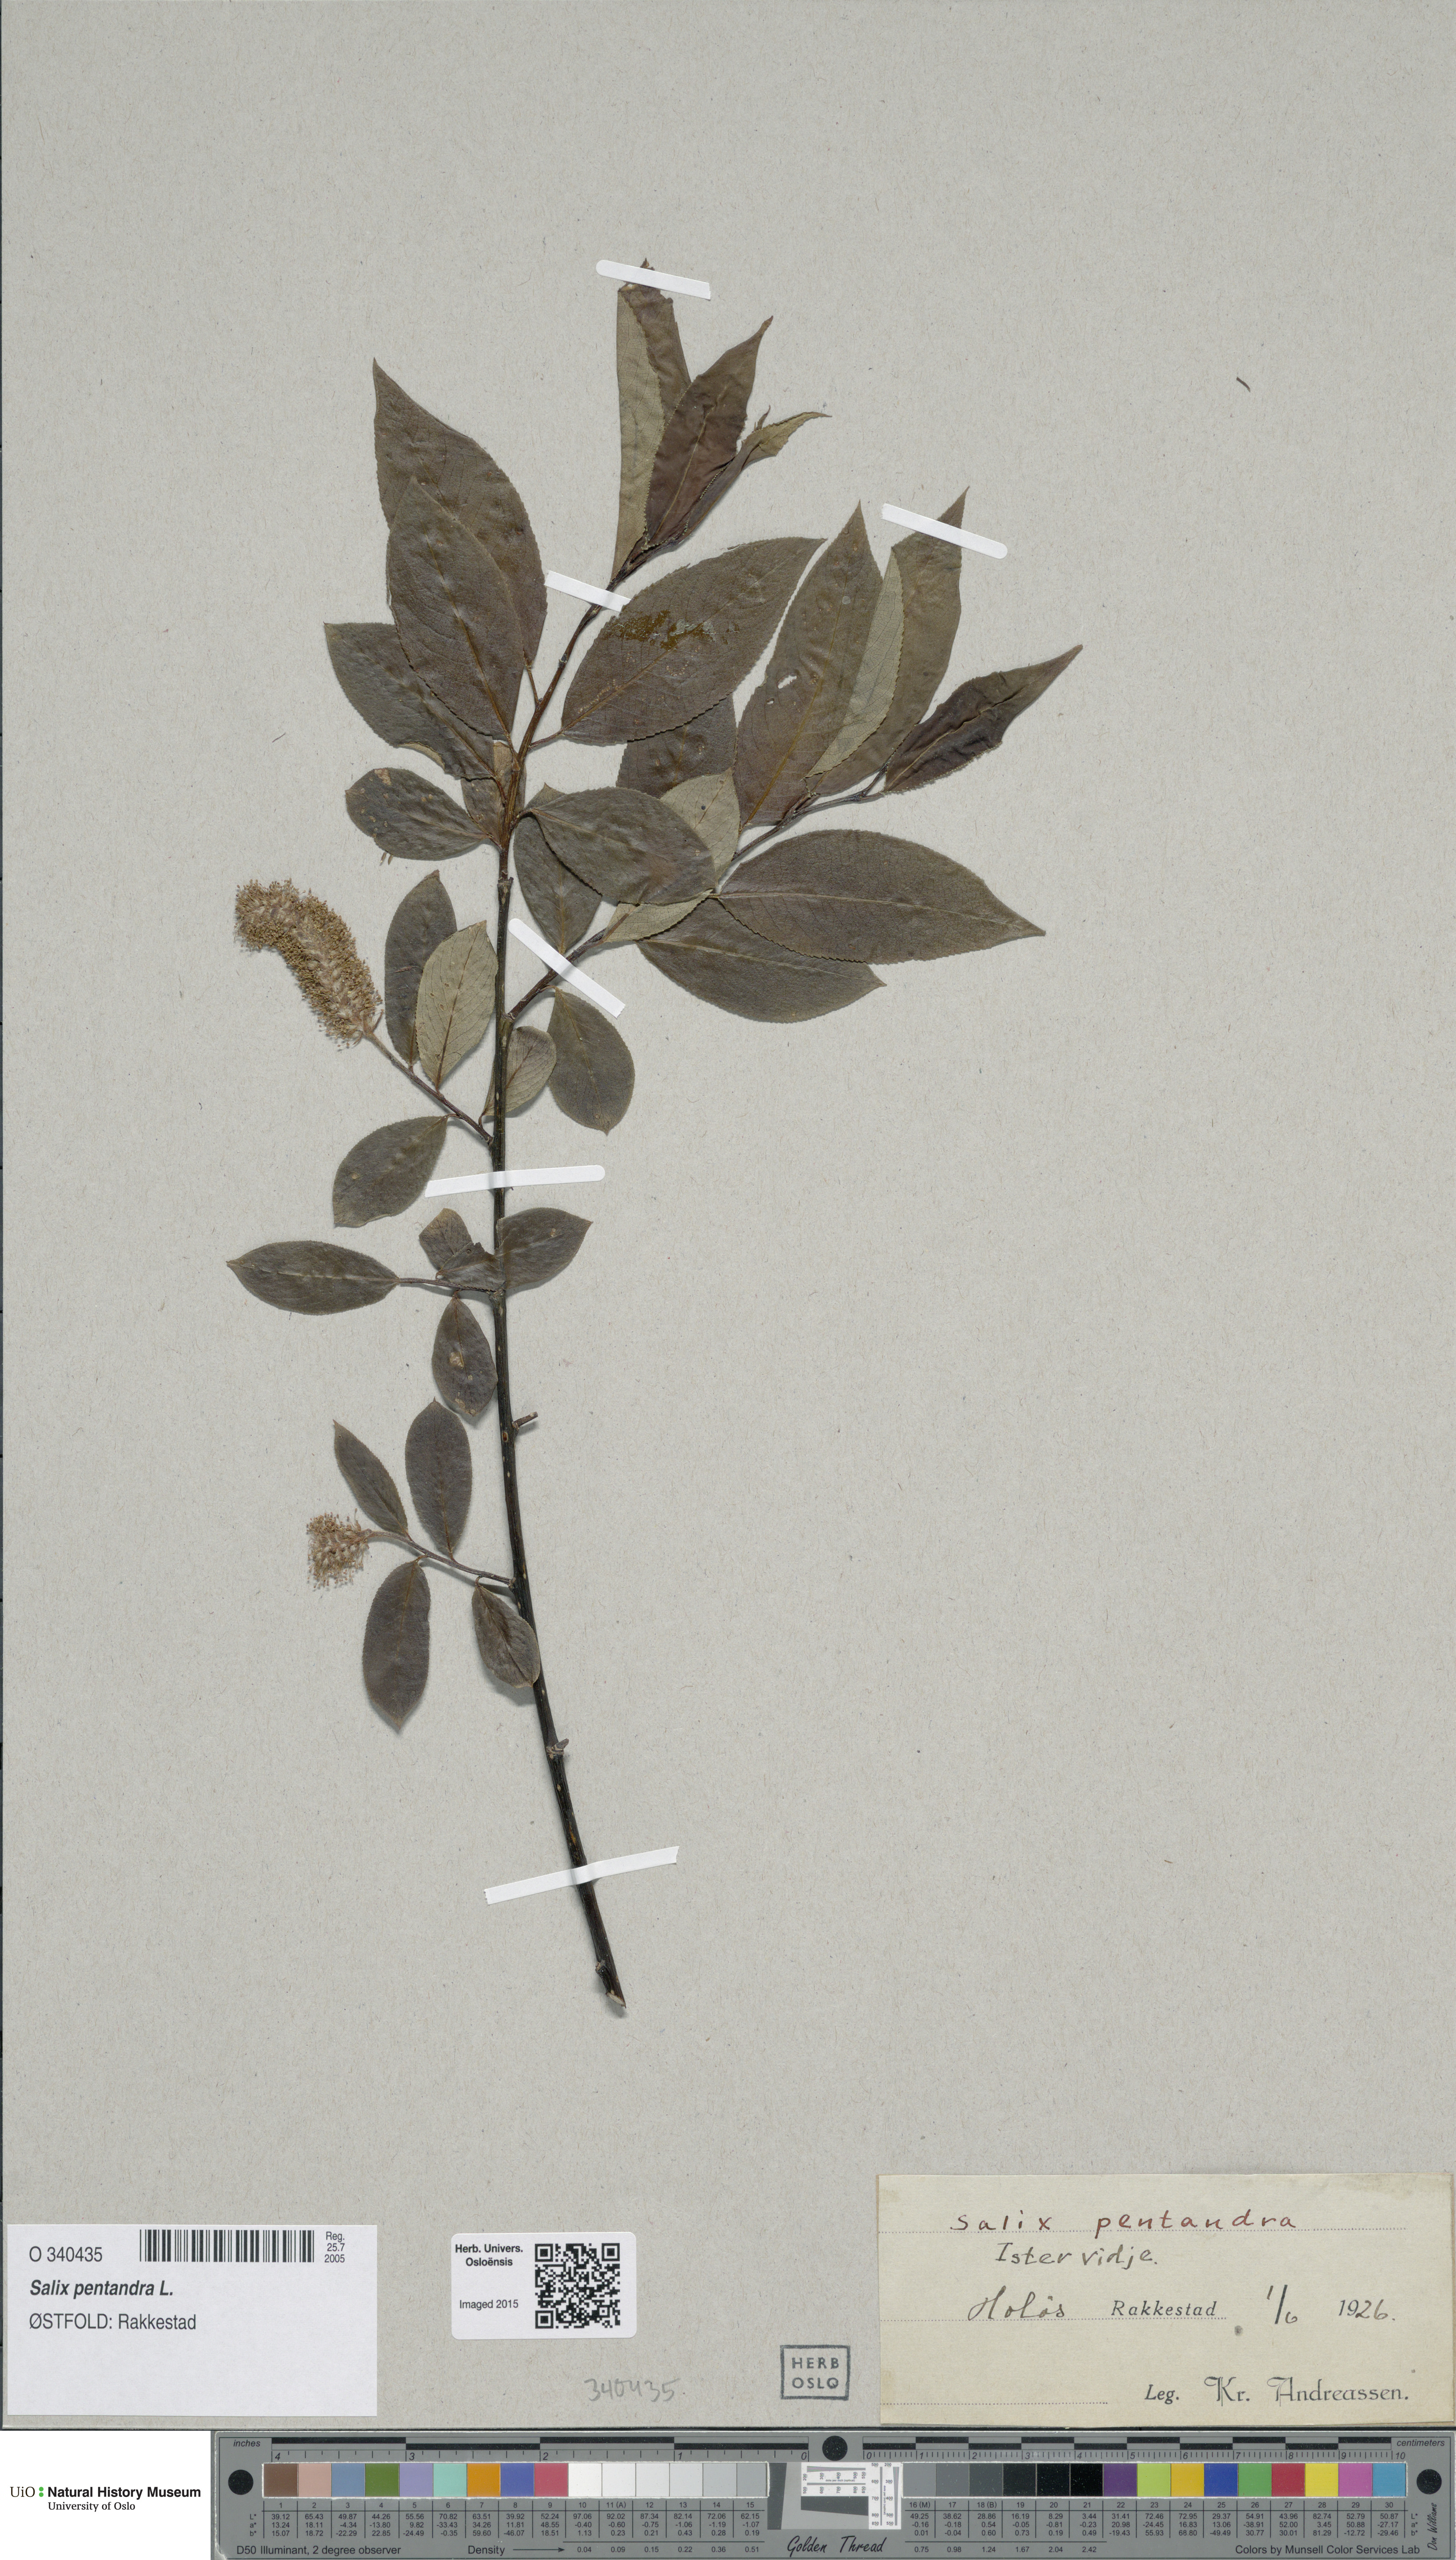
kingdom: Plantae
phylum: Tracheophyta
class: Magnoliopsida
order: Malpighiales
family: Salicaceae
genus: Salix
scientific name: Salix pentandra
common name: Bay willow
